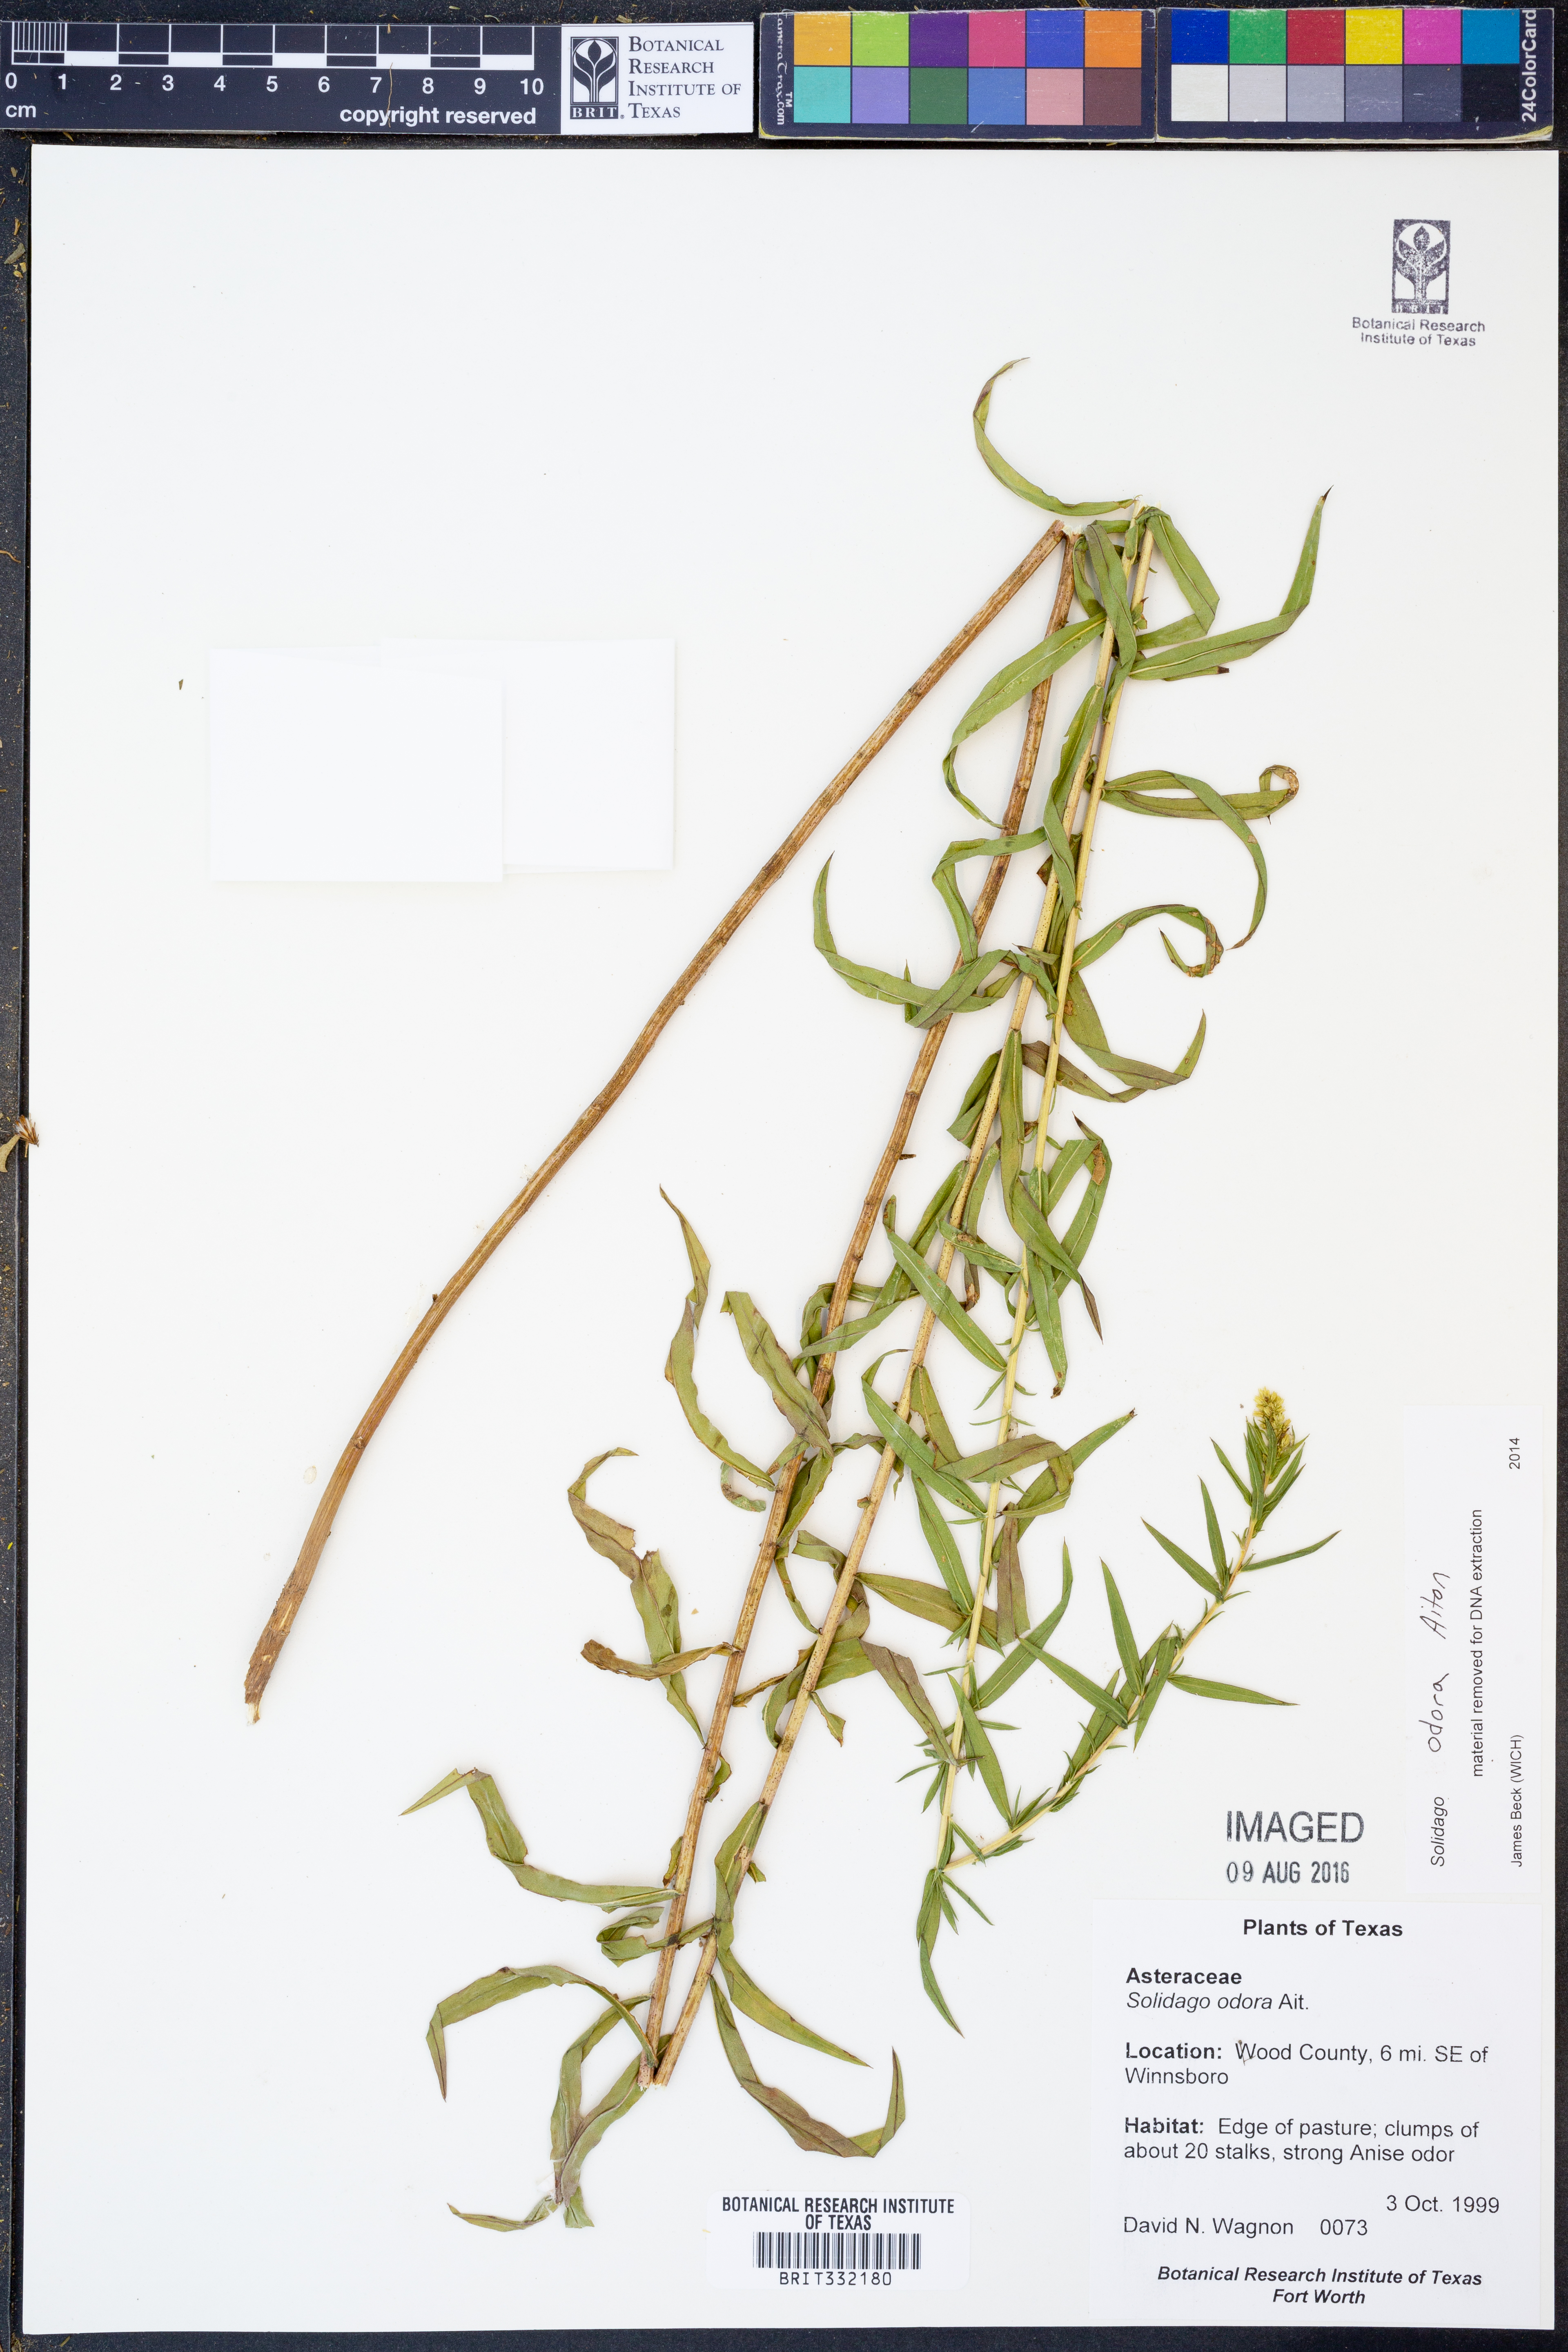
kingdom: Plantae
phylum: Tracheophyta
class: Magnoliopsida
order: Asterales
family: Asteraceae
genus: Solidago
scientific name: Solidago odora
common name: Anise-scented goldenrod
